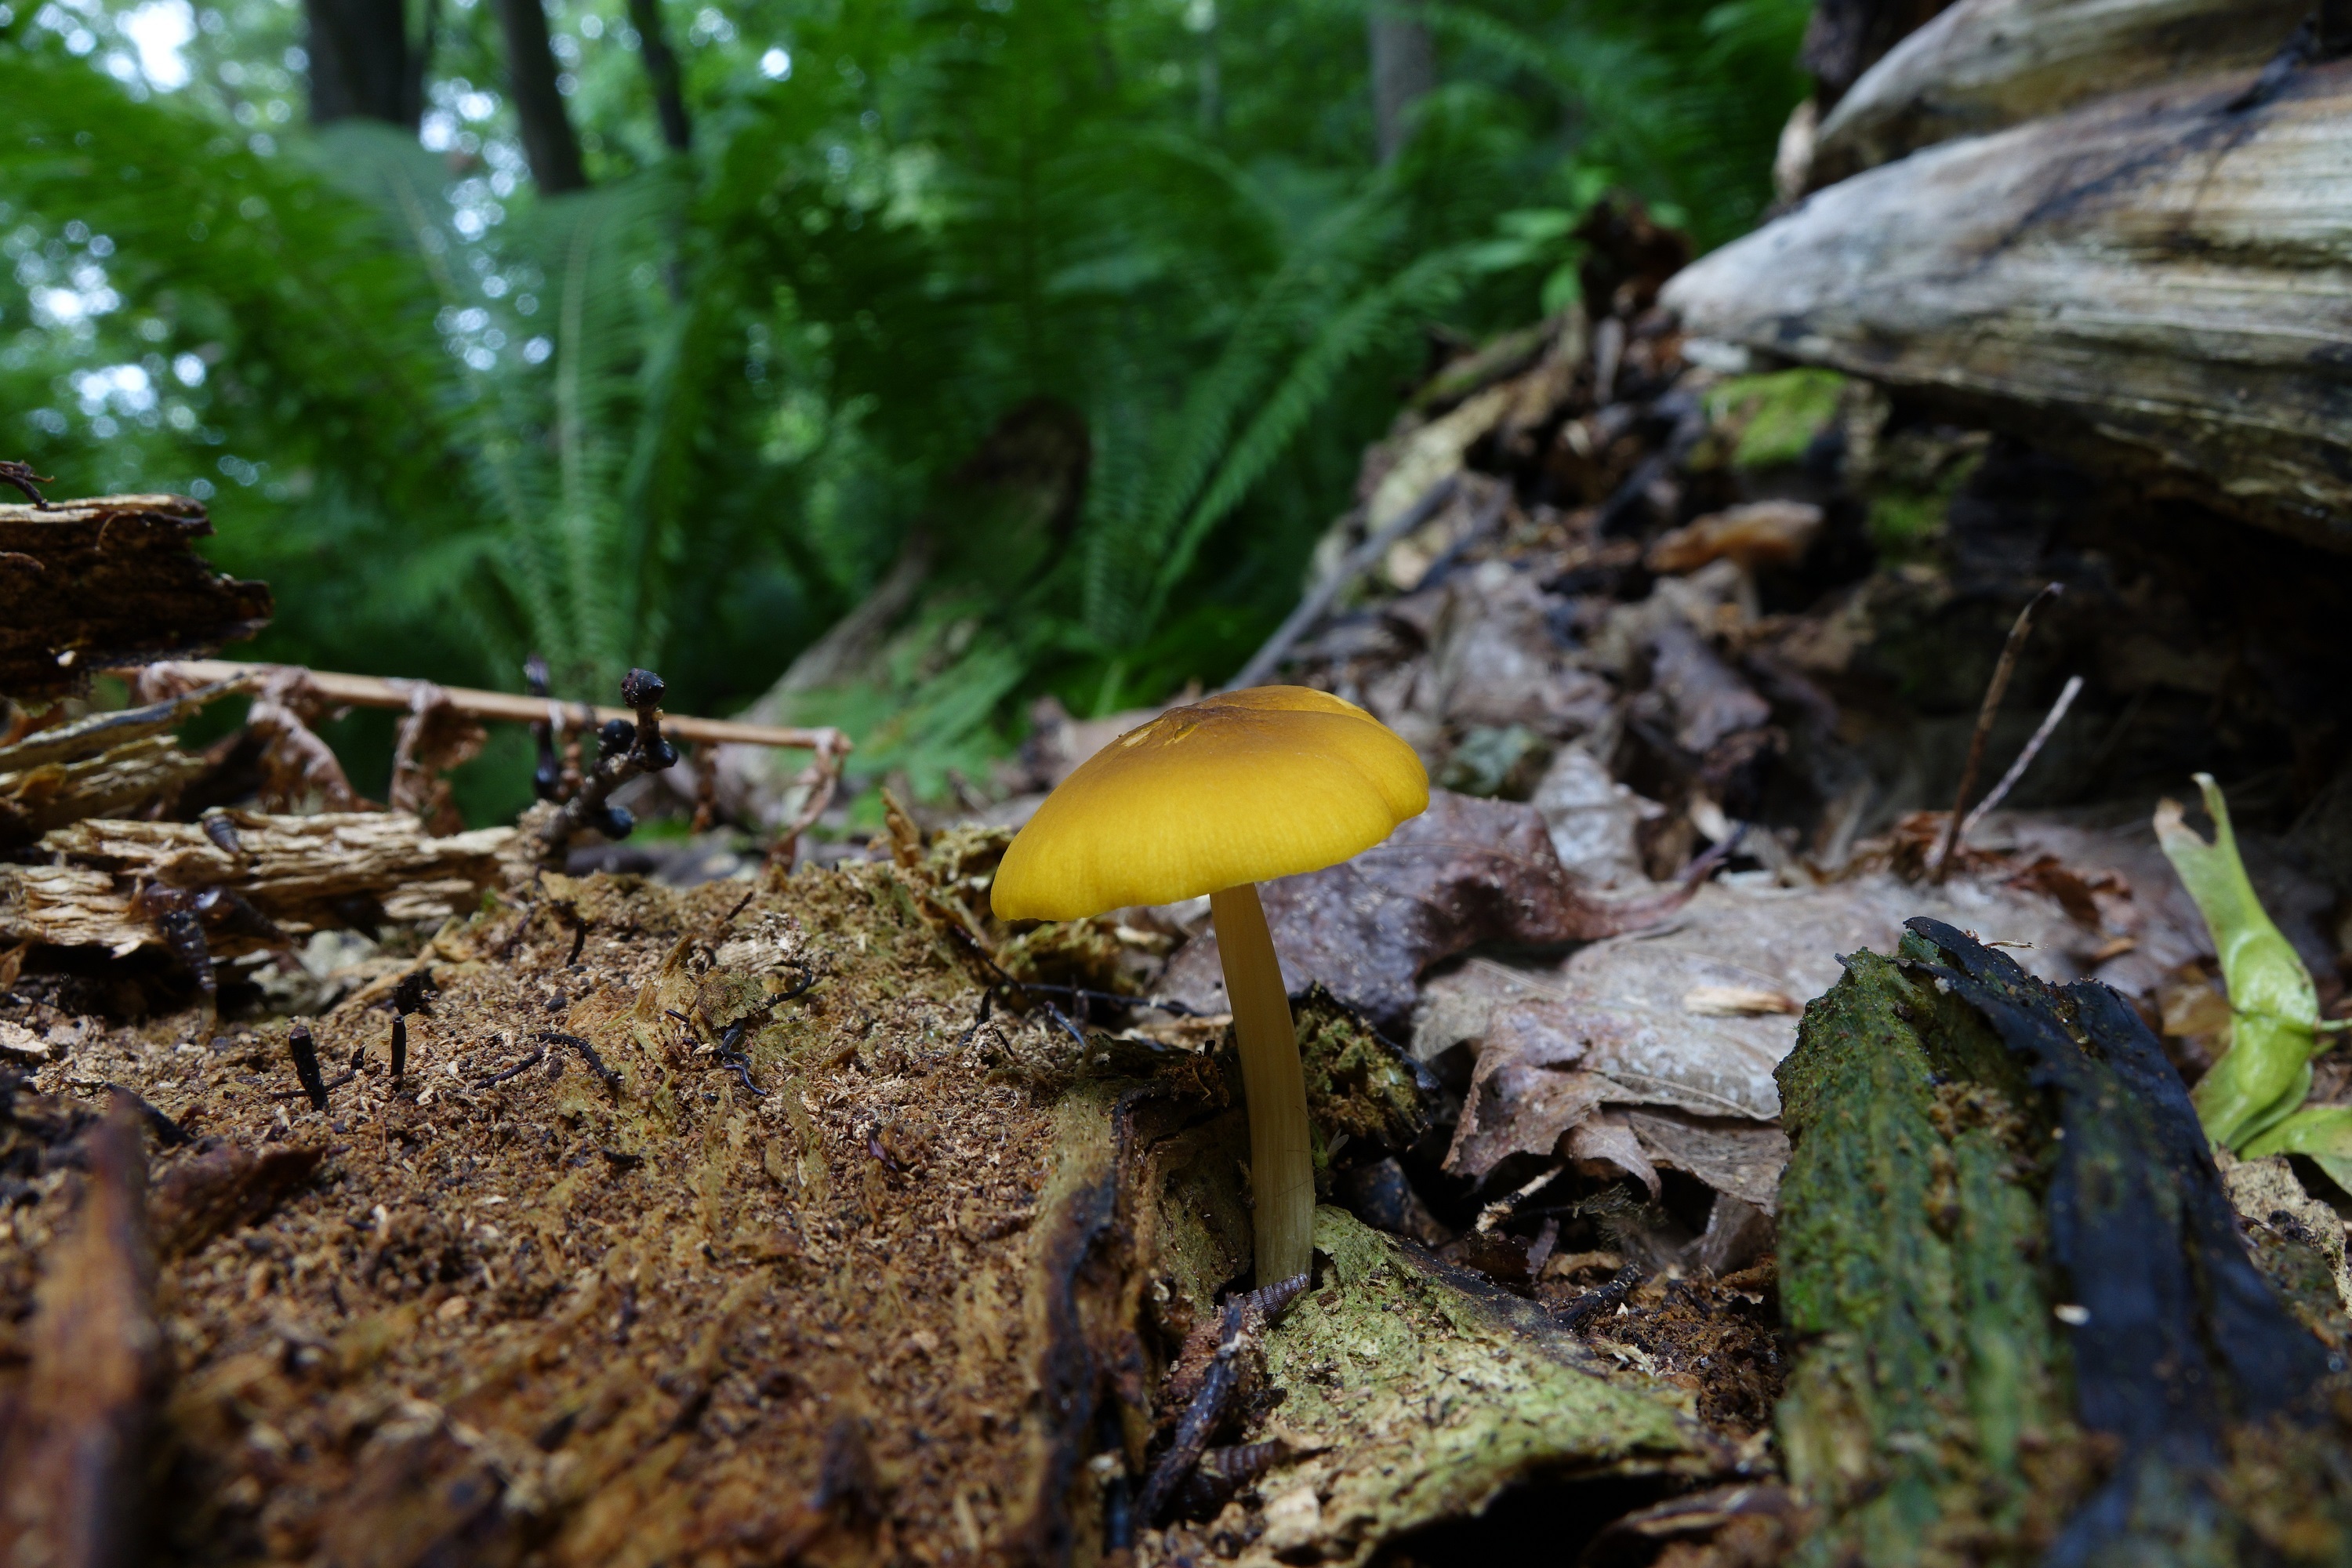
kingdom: Fungi
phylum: Basidiomycota
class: Agaricomycetes
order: Agaricales
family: Pluteaceae
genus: Pluteus
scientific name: Pluteus leoninus
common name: Lion shield
